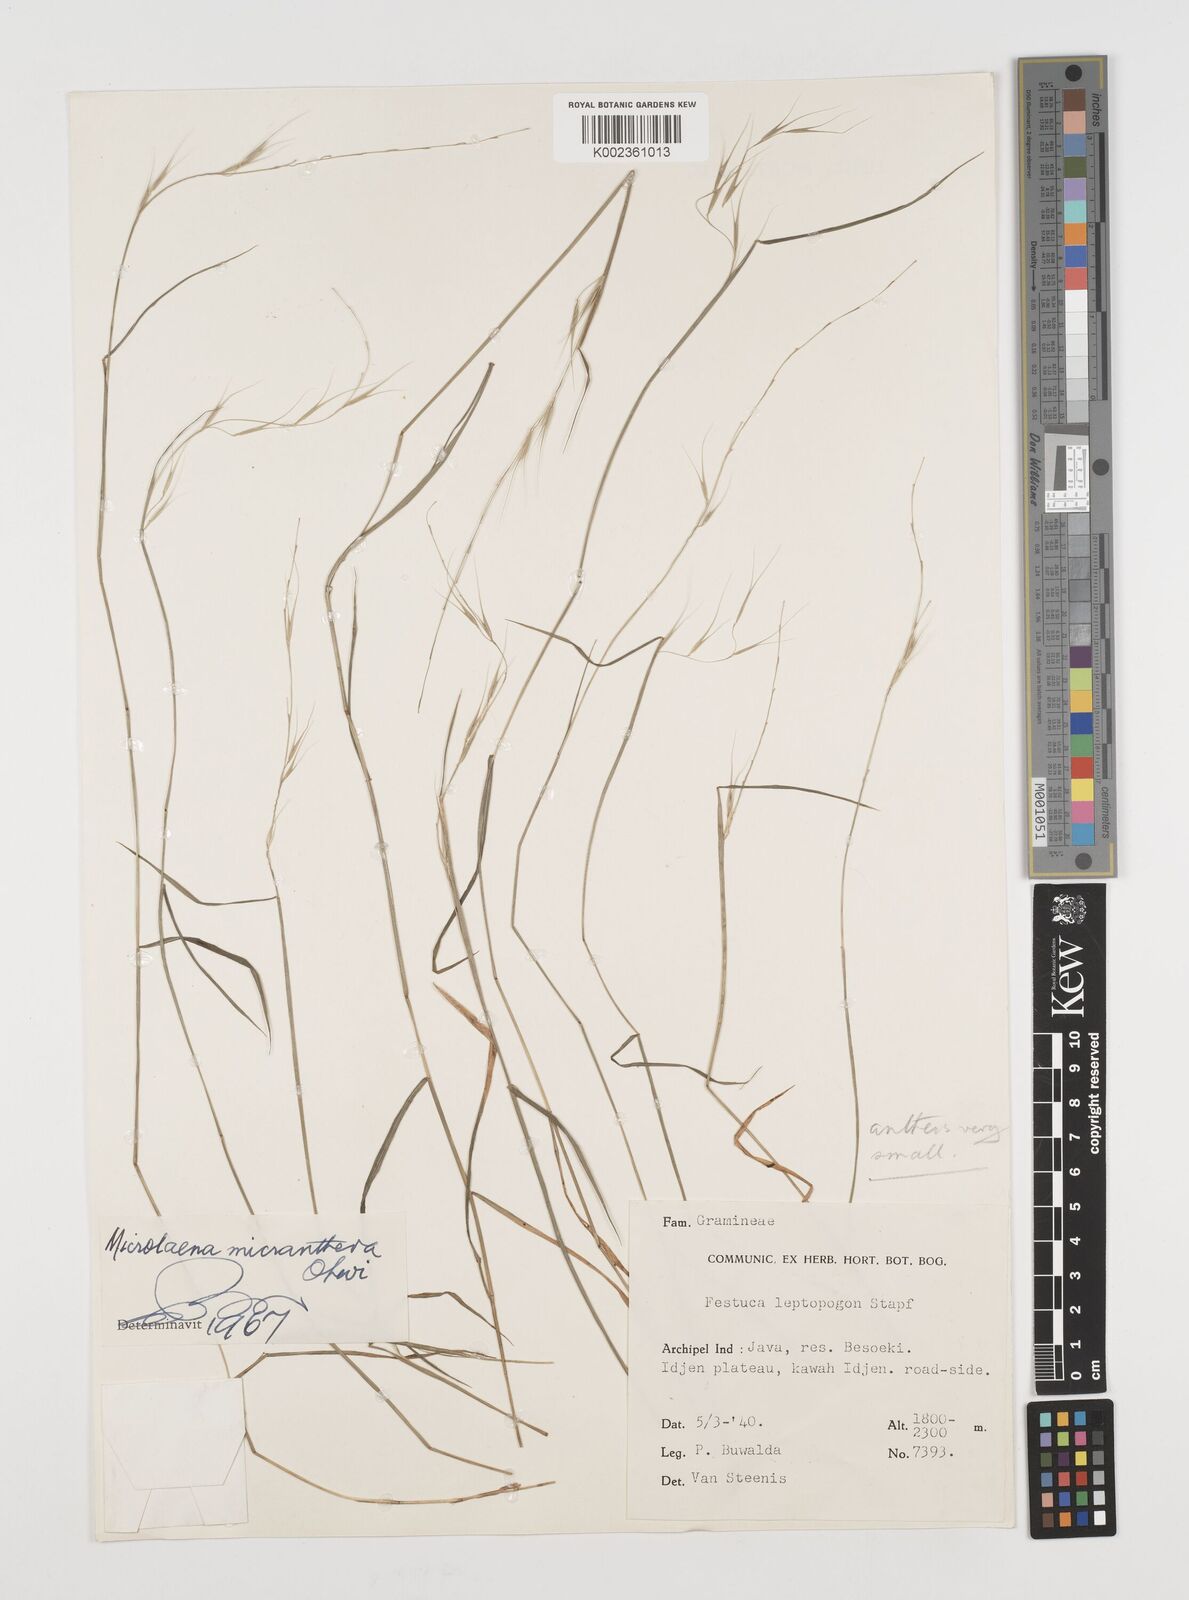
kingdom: Plantae
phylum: Tracheophyta
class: Liliopsida
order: Poales
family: Poaceae
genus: Microlaena
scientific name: Microlaena stipoides
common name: Meadow ricegrass
